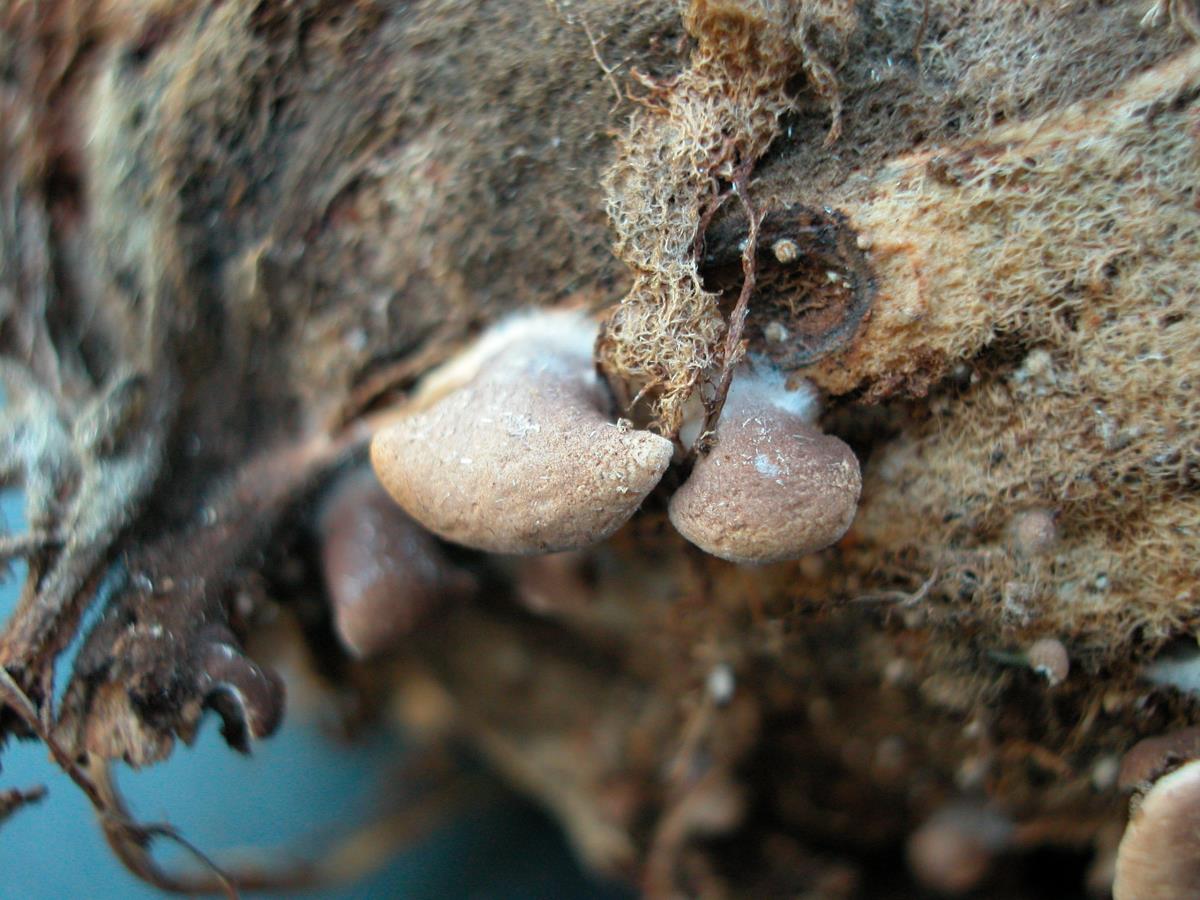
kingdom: Fungi
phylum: Basidiomycota
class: Agaricomycetes
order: Agaricales
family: Strophariaceae
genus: Melanotus
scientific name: Melanotus communis
